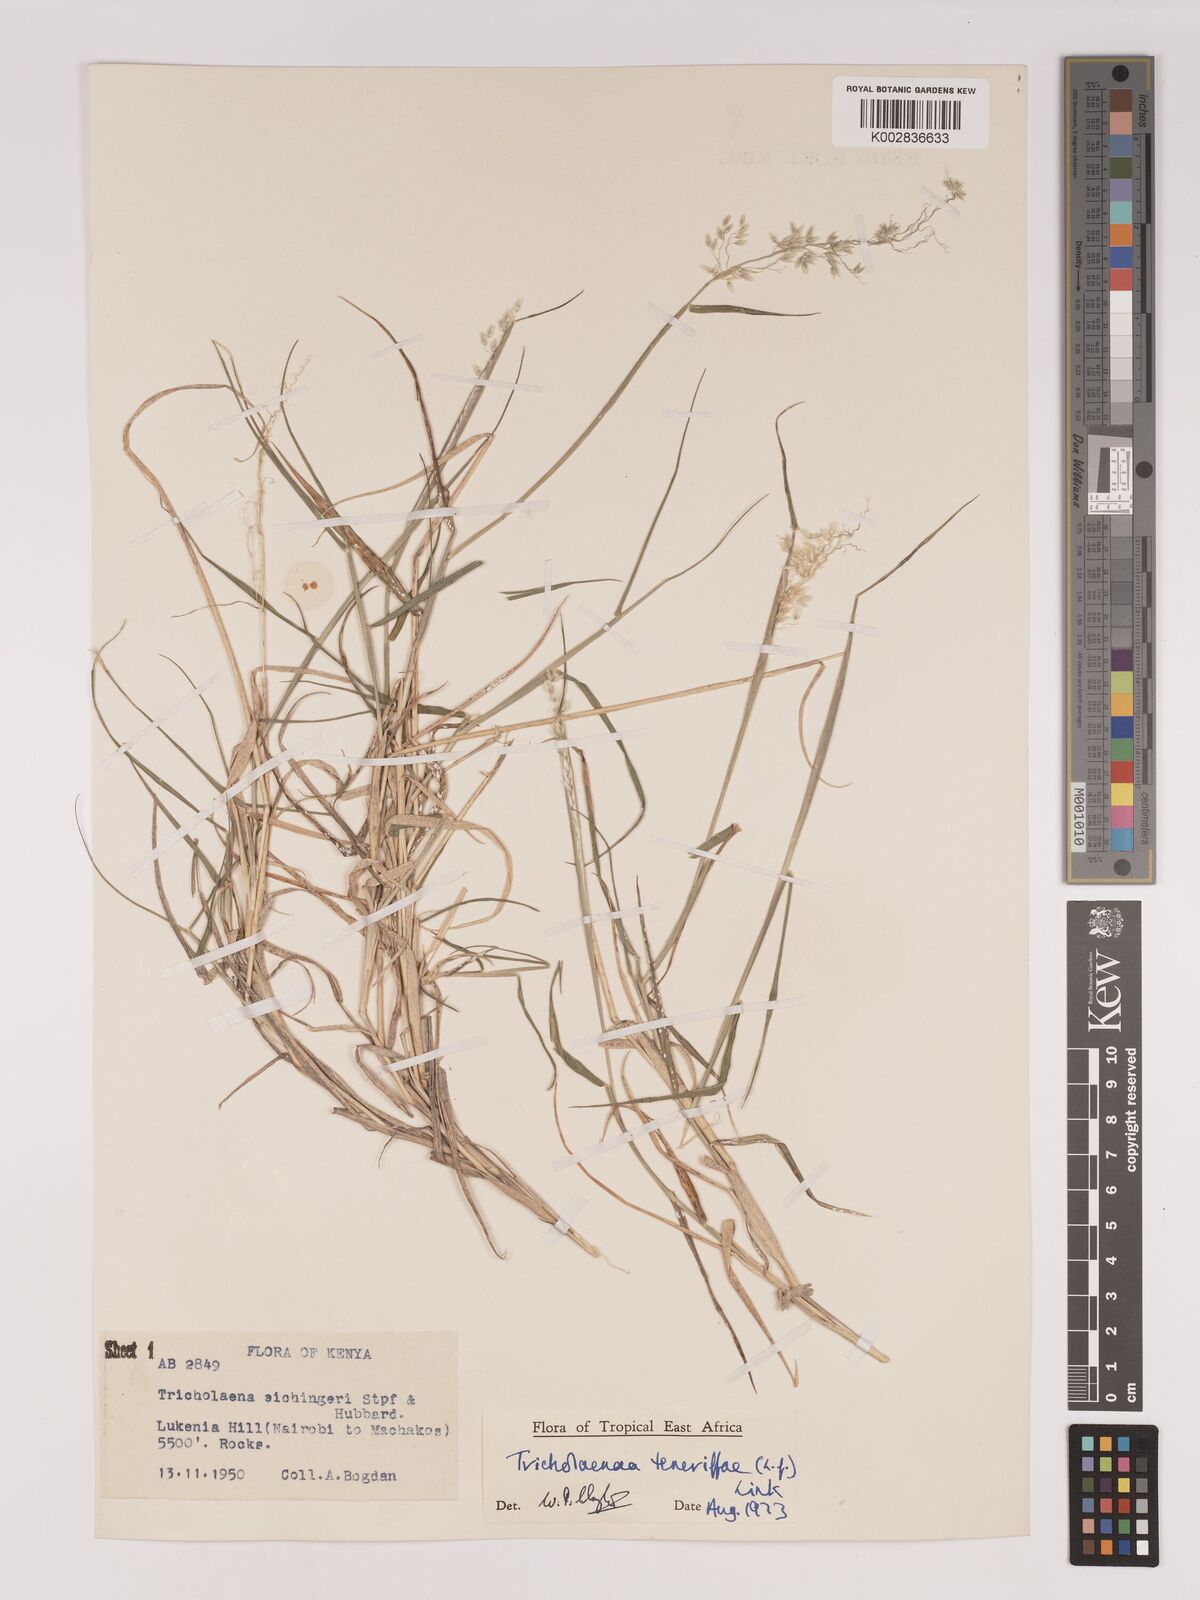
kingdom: Plantae
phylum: Tracheophyta
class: Liliopsida
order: Poales
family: Poaceae
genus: Tricholaena
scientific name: Tricholaena teneriffae
